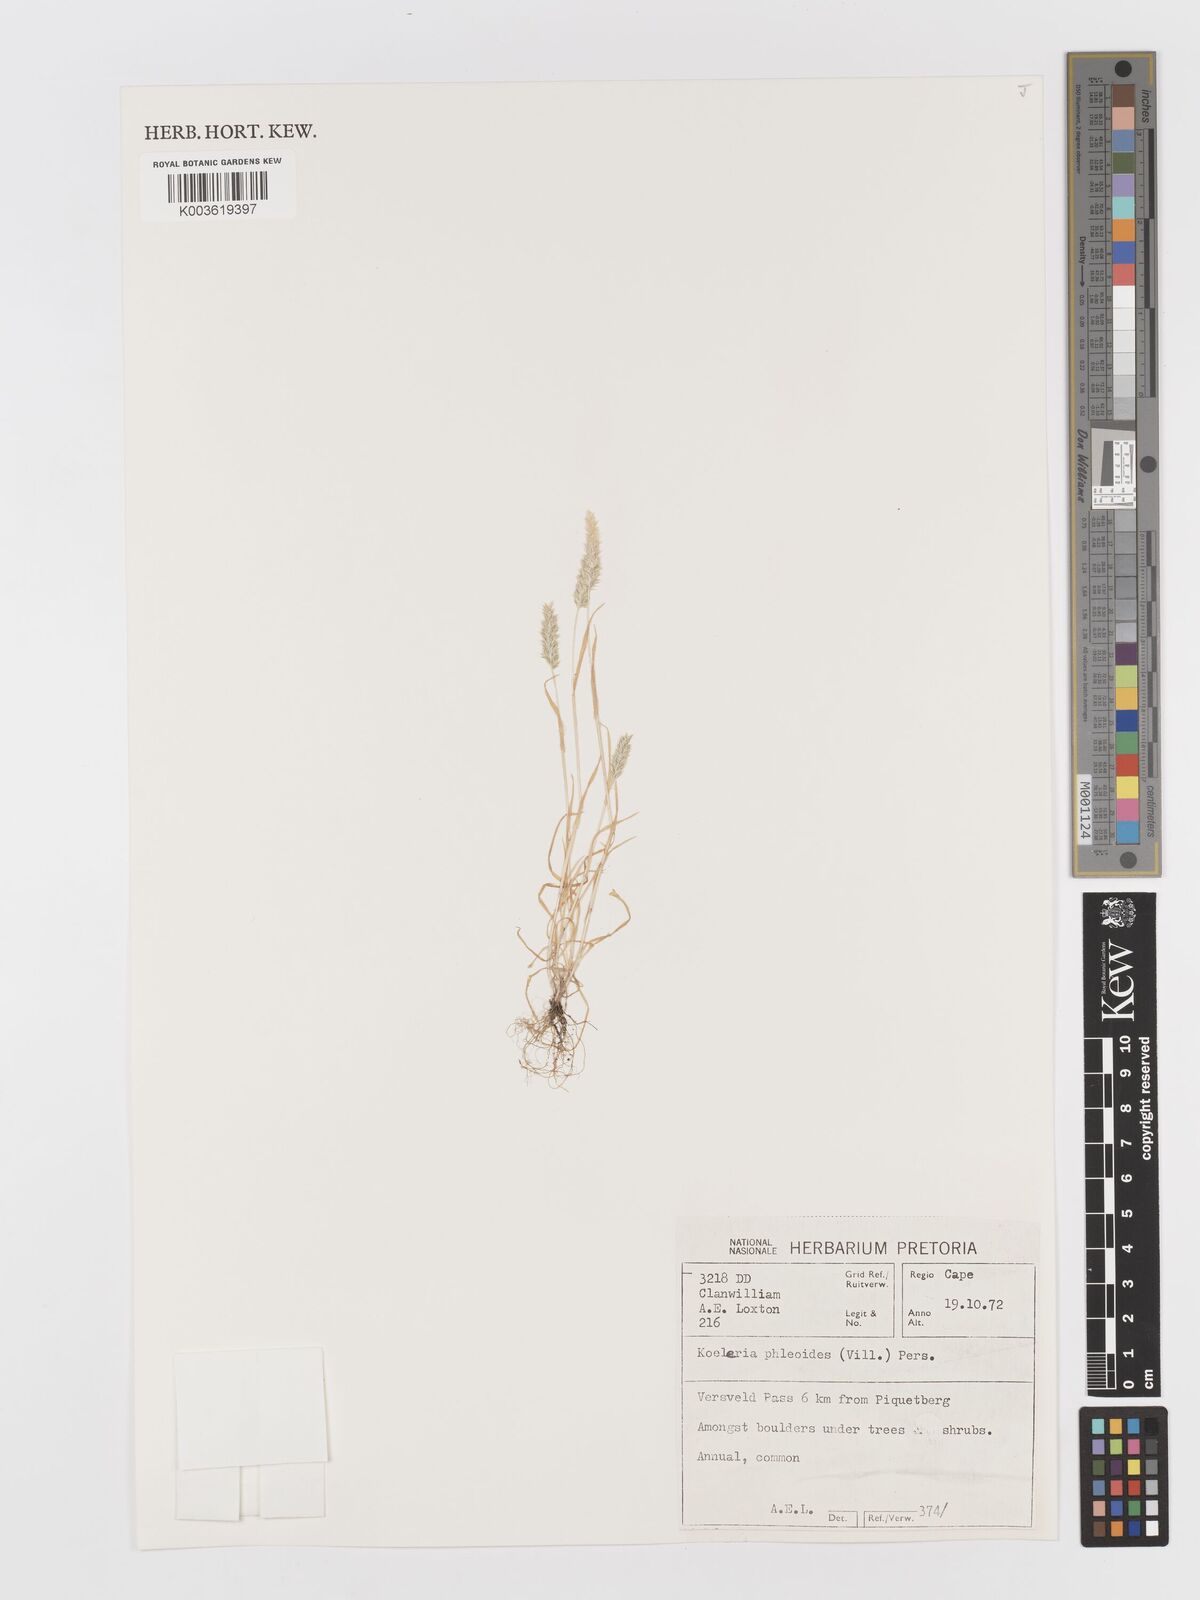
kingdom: Plantae
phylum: Tracheophyta
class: Liliopsida
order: Poales
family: Poaceae
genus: Rostraria
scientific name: Rostraria cristata
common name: Mediterranean hair-grass
